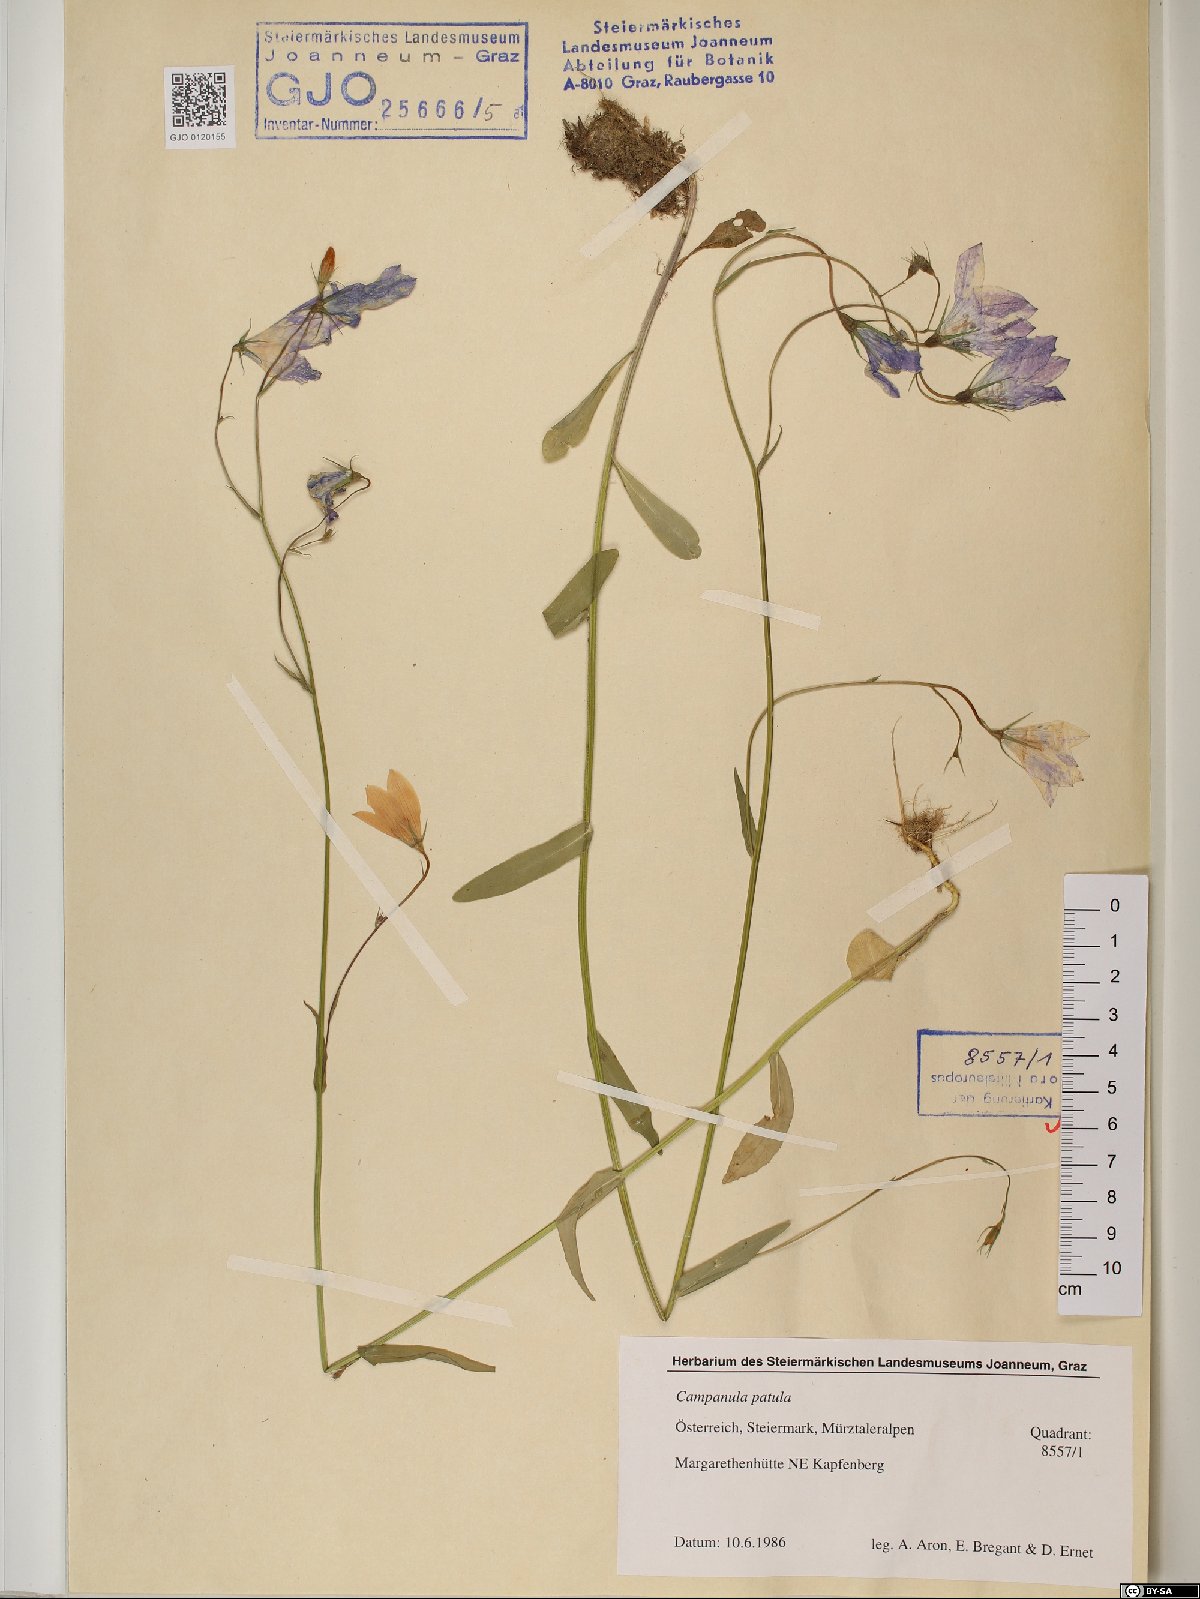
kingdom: Plantae
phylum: Tracheophyta
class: Magnoliopsida
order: Asterales
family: Campanulaceae
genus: Campanula
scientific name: Campanula patula
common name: Spreading bellflower
